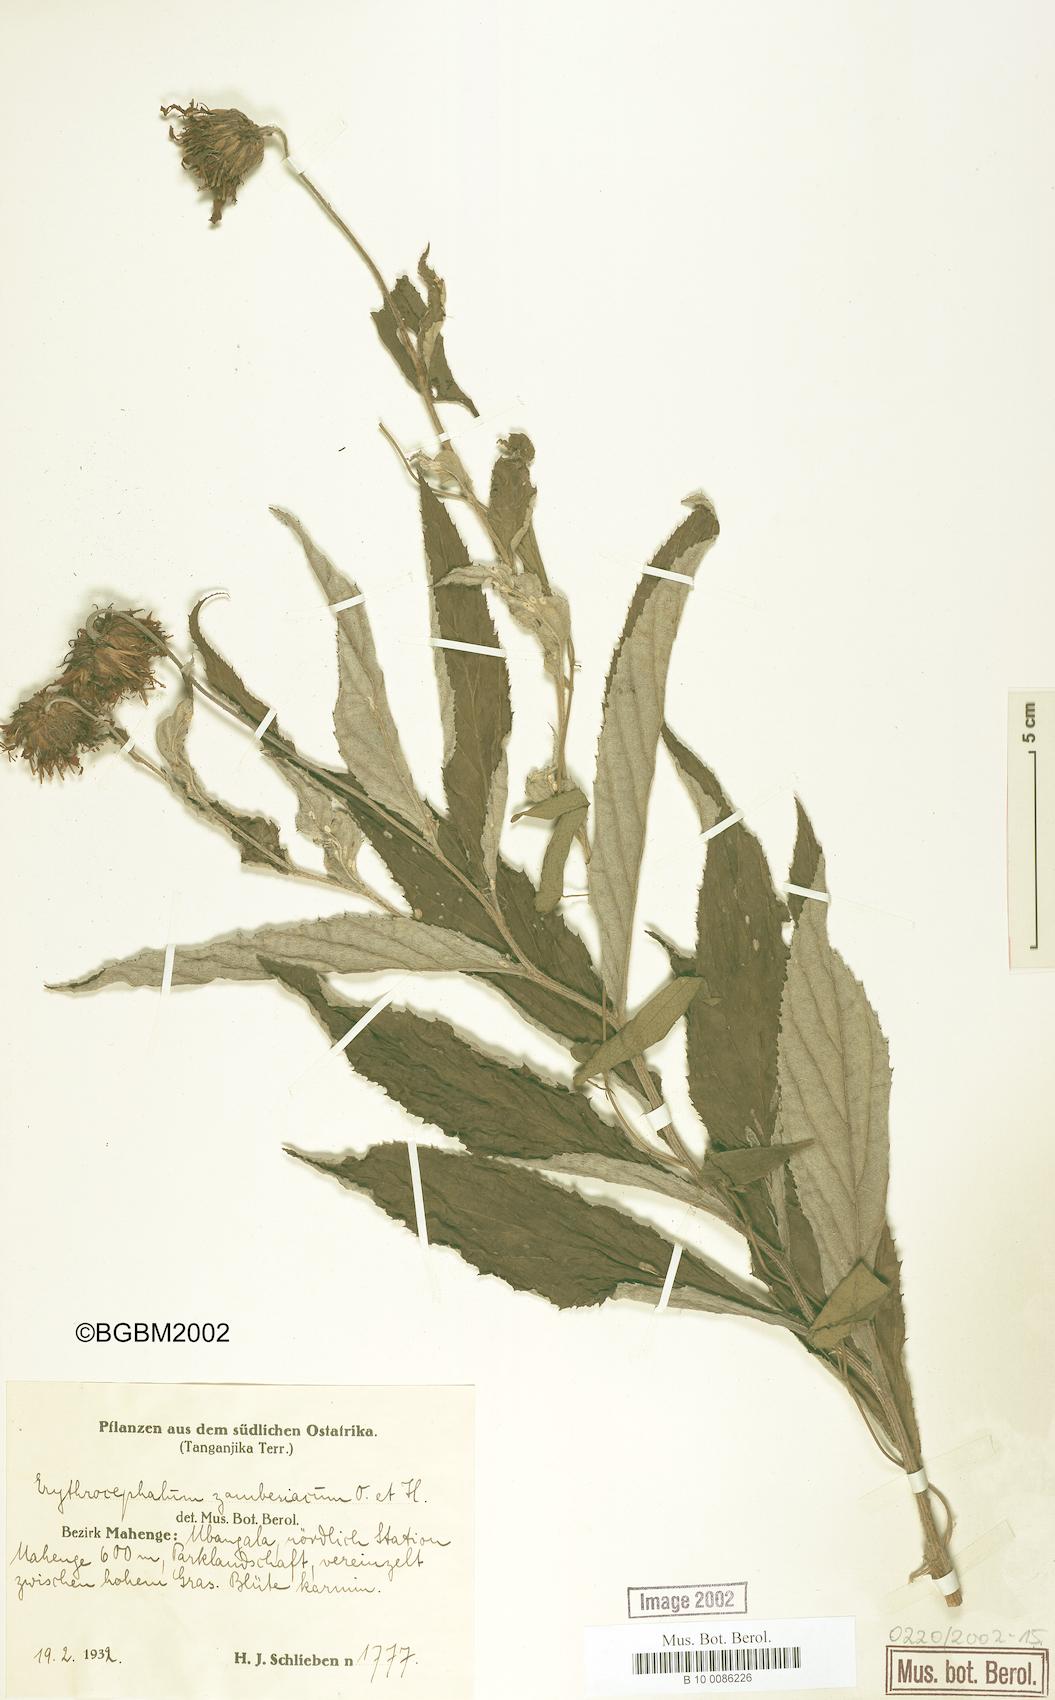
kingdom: Plantae
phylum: Tracheophyta
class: Magnoliopsida
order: Asterales
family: Asteraceae
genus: Erythrocephalum
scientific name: Erythrocephalum longifolium
